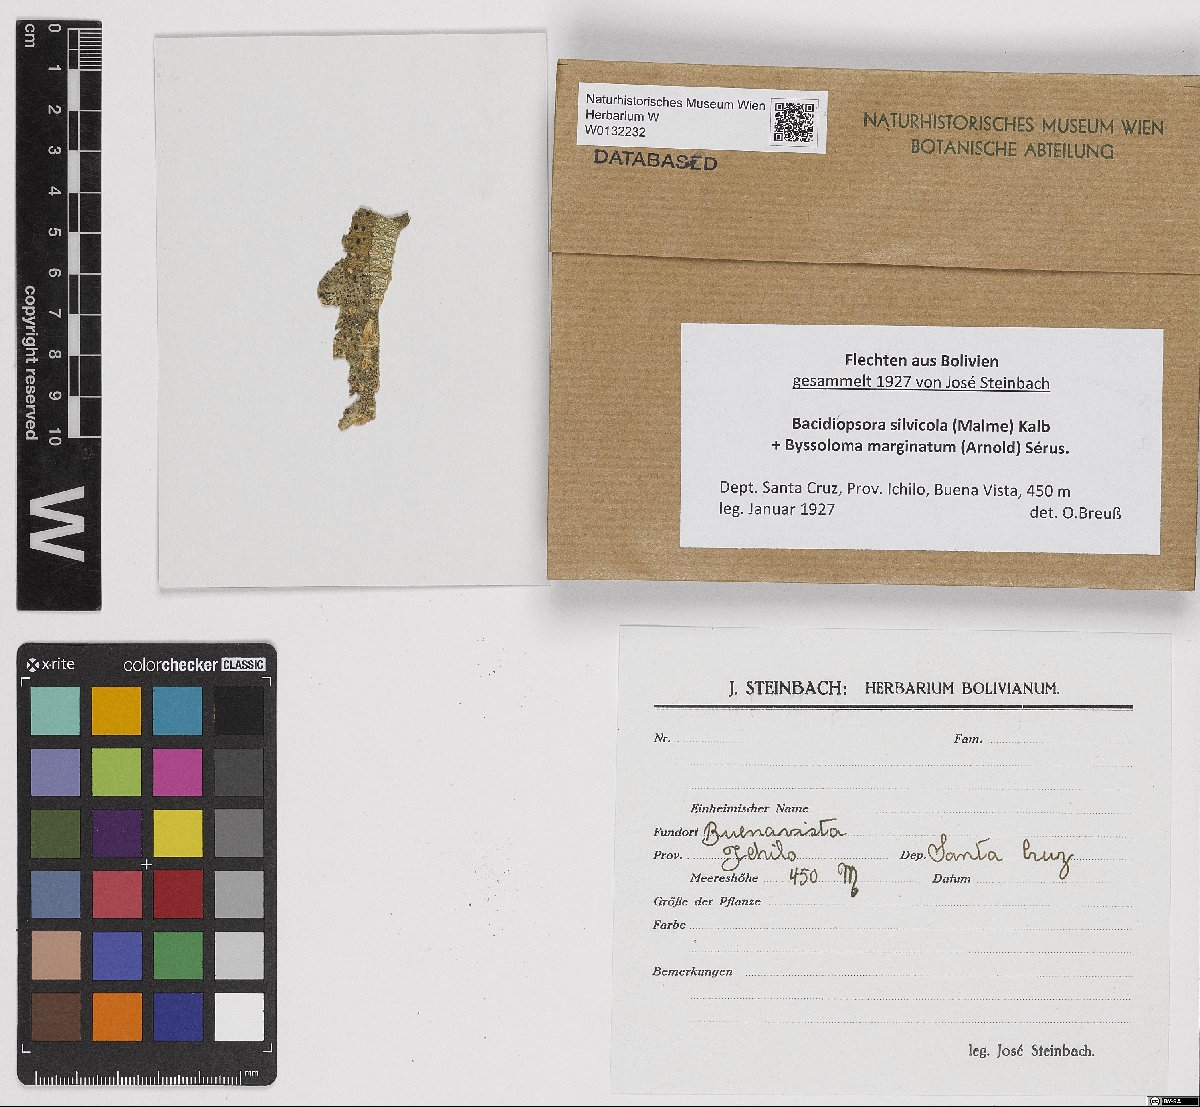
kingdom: Fungi
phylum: Ascomycota
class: Lecanoromycetes
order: Lecanorales
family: Ramalinaceae
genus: Bacidiopsora
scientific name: Bacidiopsora silvicola
